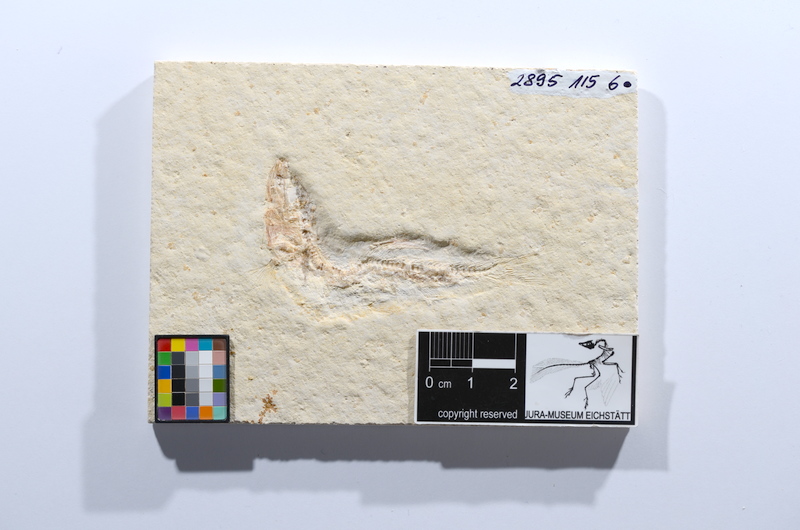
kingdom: Animalia
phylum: Chordata
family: Ascalaboidae
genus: Tharsis
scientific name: Tharsis dubius
